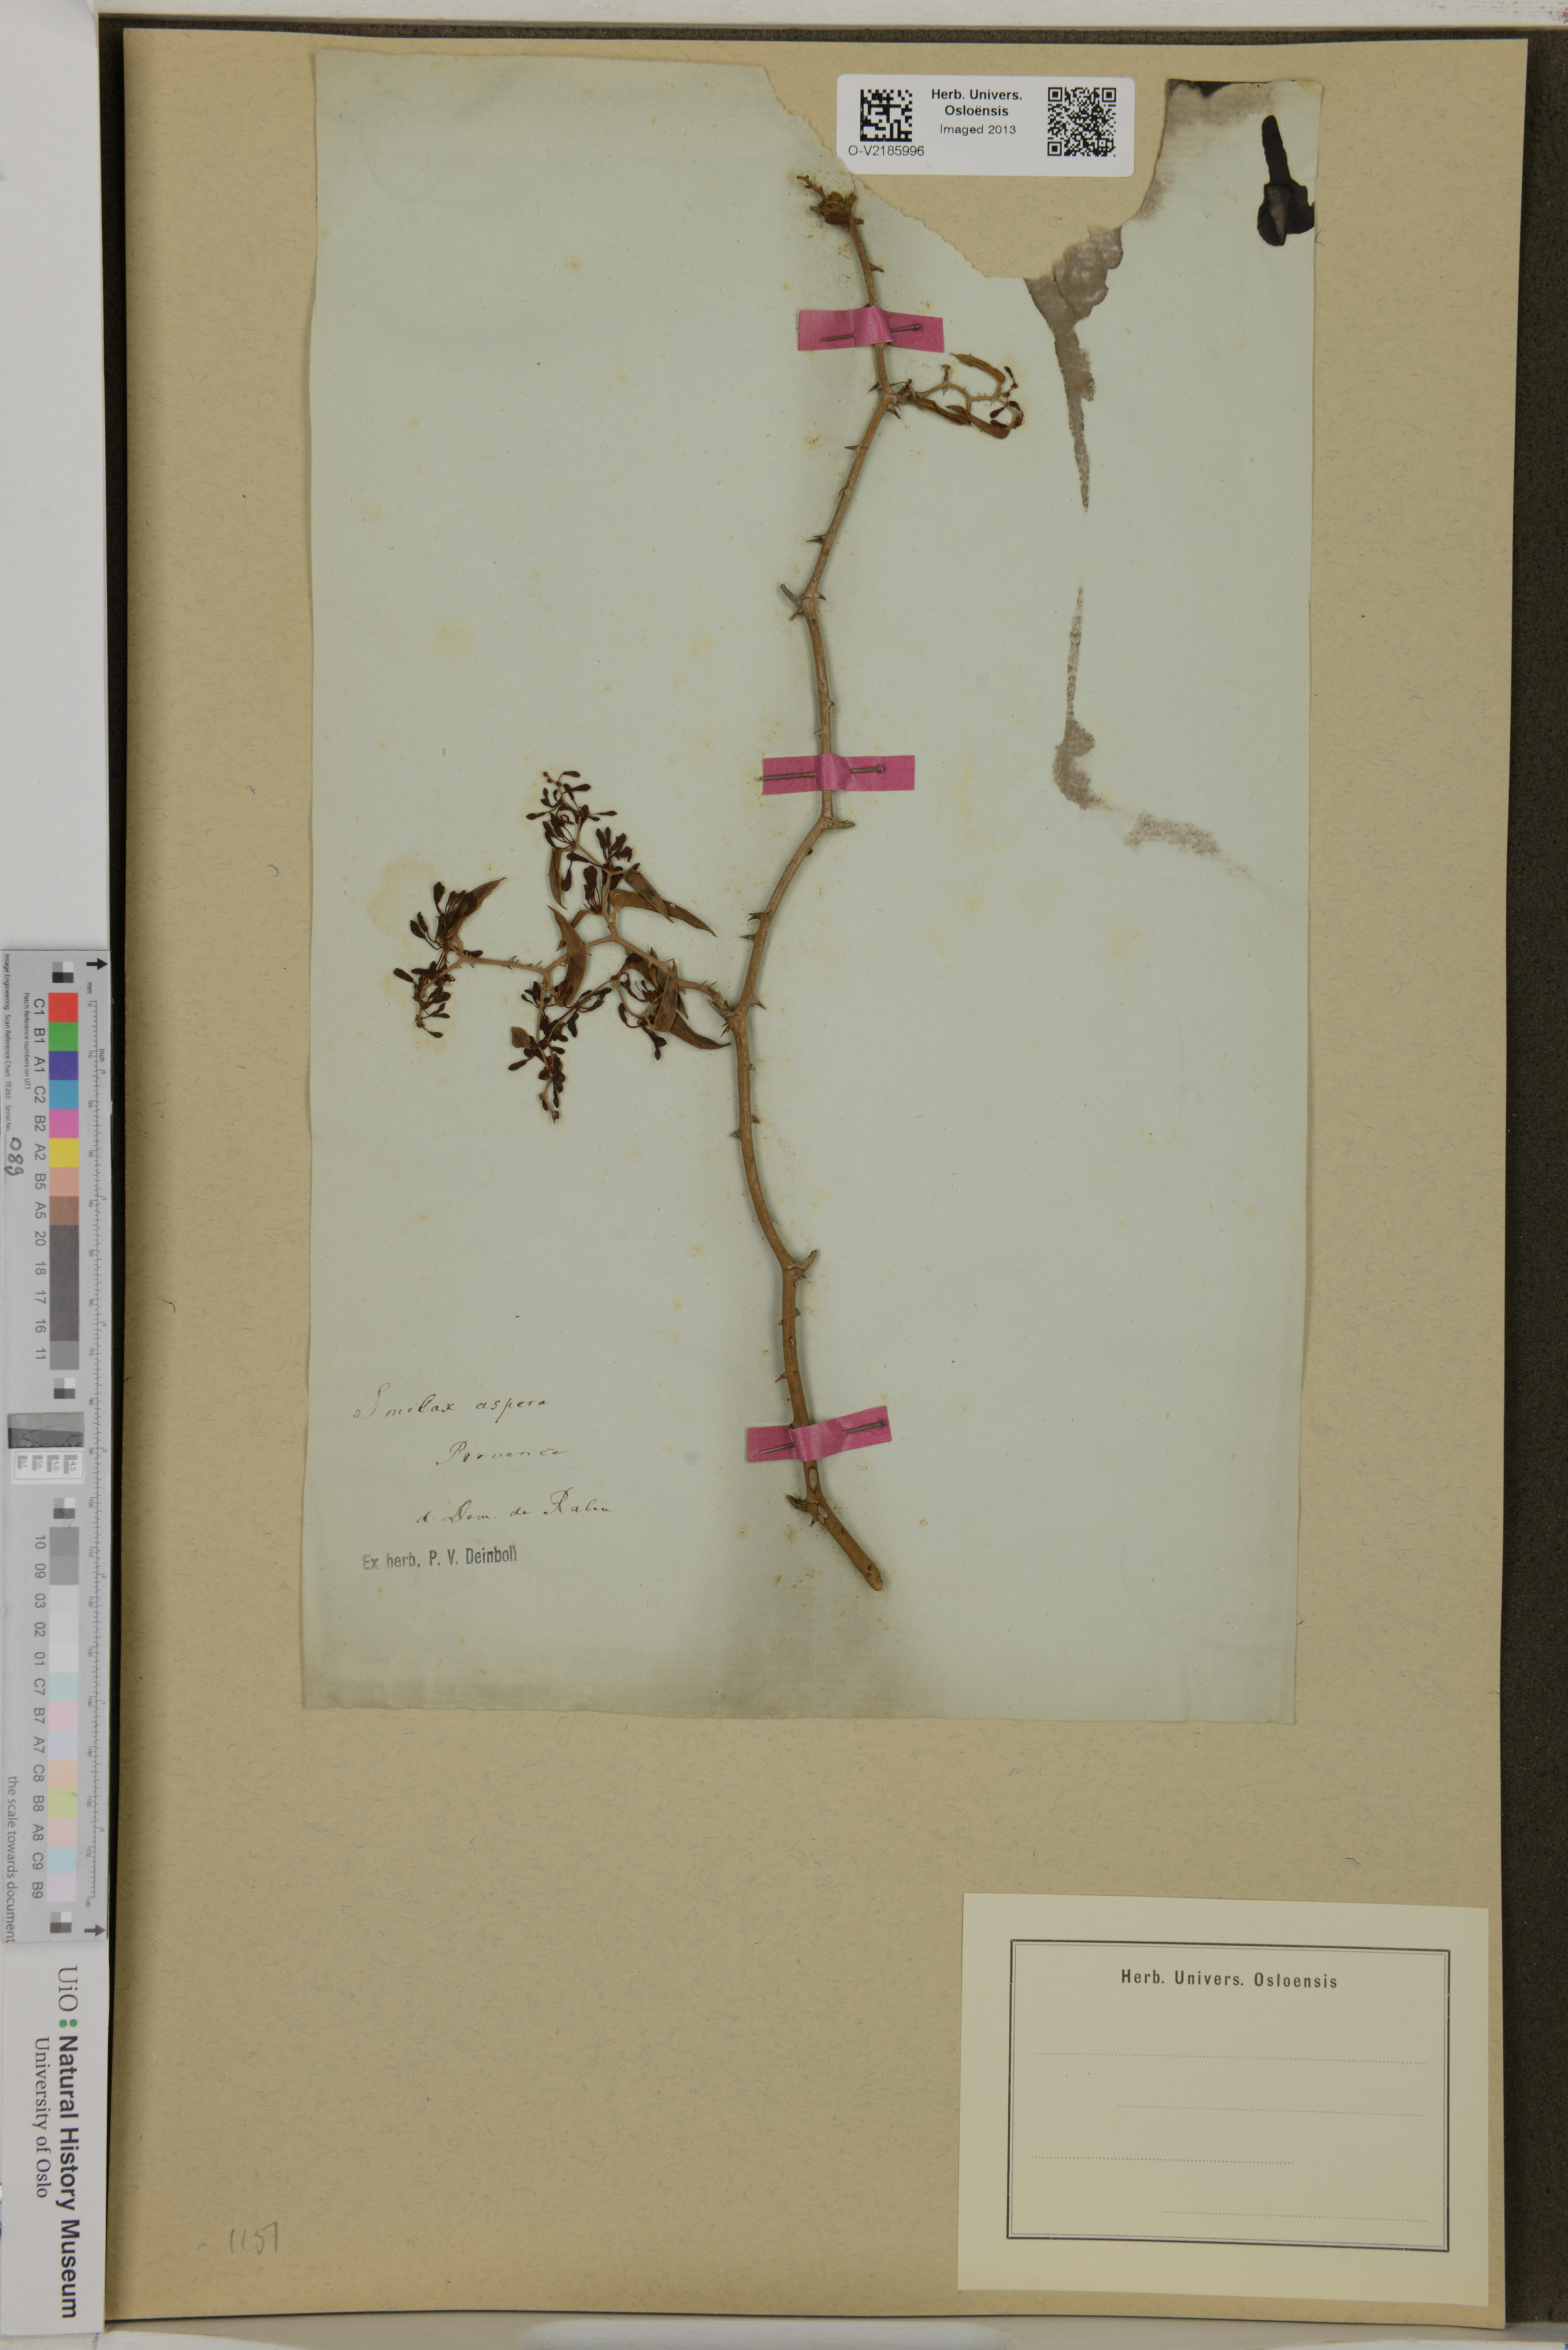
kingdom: Plantae
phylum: Tracheophyta
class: Liliopsida
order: Liliales
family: Smilacaceae
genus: Smilax
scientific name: Smilax aspera
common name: Common smilax
